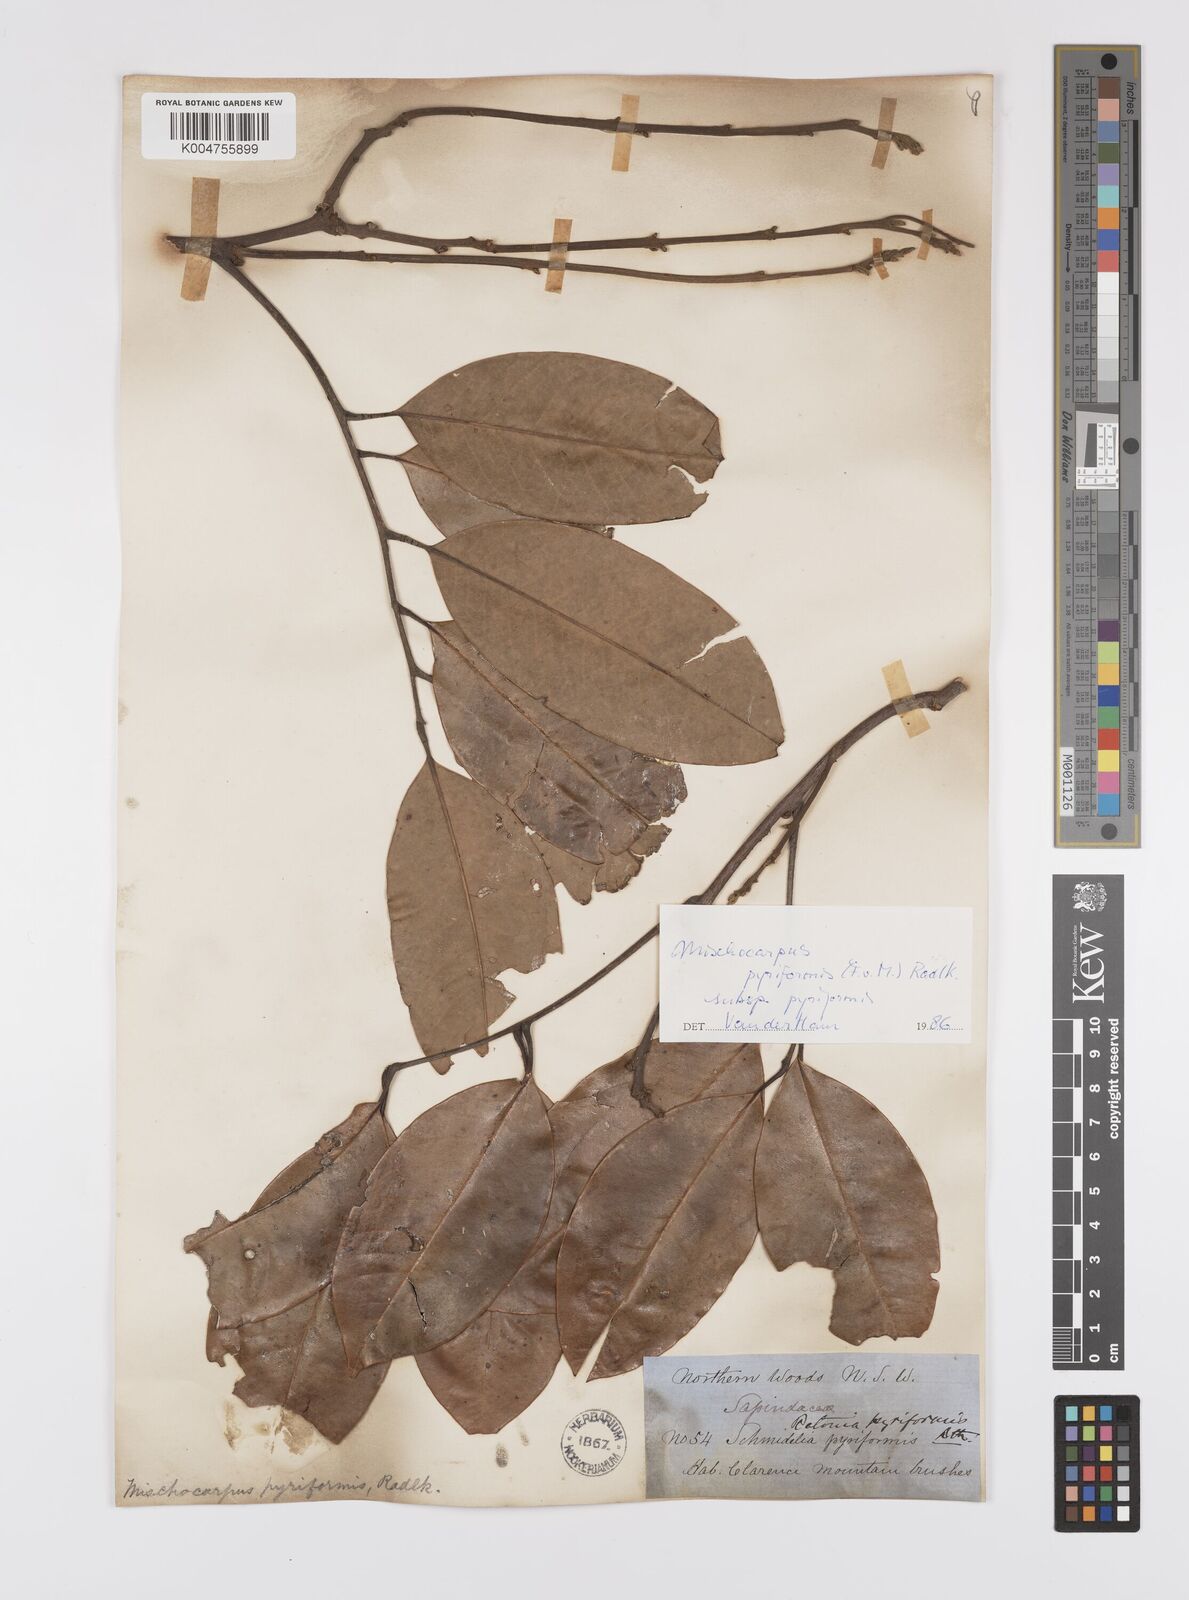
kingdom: Plantae
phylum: Tracheophyta
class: Magnoliopsida
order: Sapindales
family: Sapindaceae
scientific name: Sapindaceae
